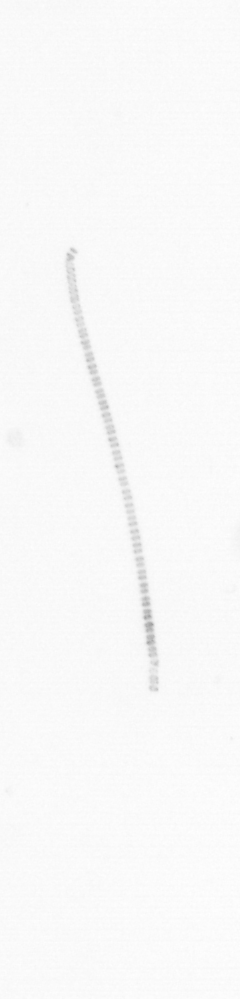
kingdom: Chromista
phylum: Ochrophyta
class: Bacillariophyceae
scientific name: Bacillariophyceae
